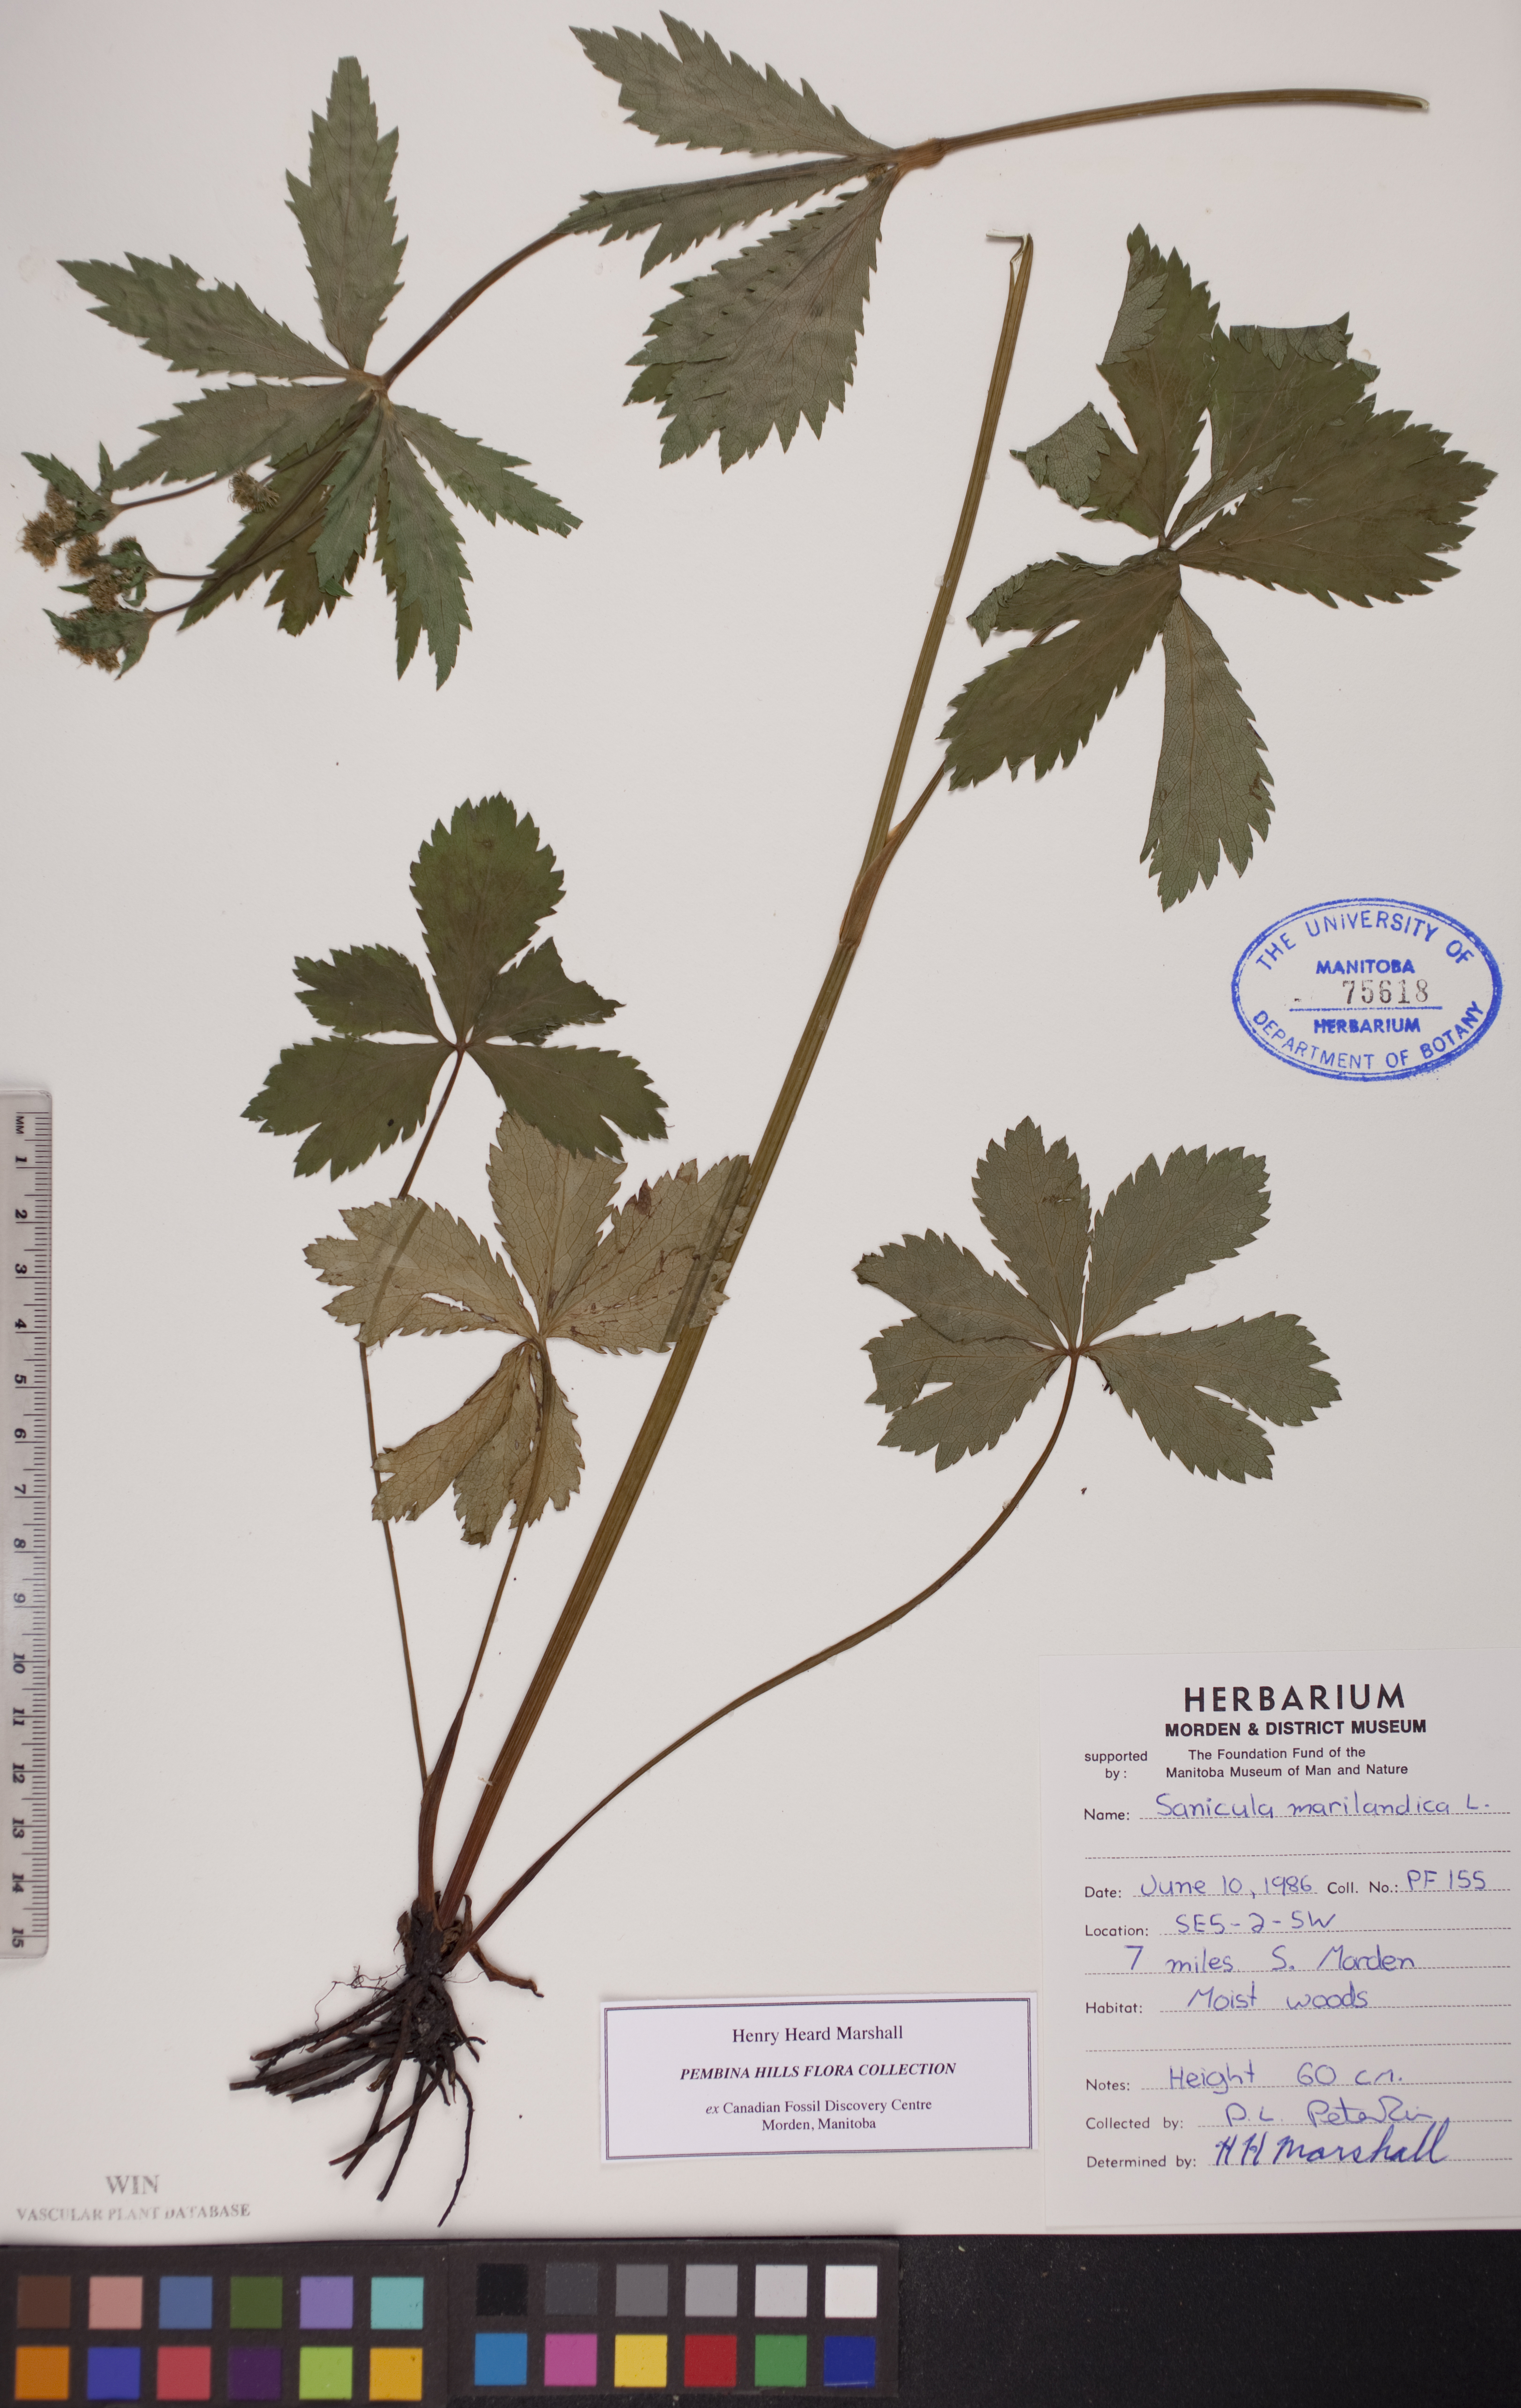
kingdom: Plantae
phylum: Tracheophyta
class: Magnoliopsida
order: Apiales
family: Apiaceae
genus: Sanicula
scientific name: Sanicula marilandica
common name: Black snakeroot
